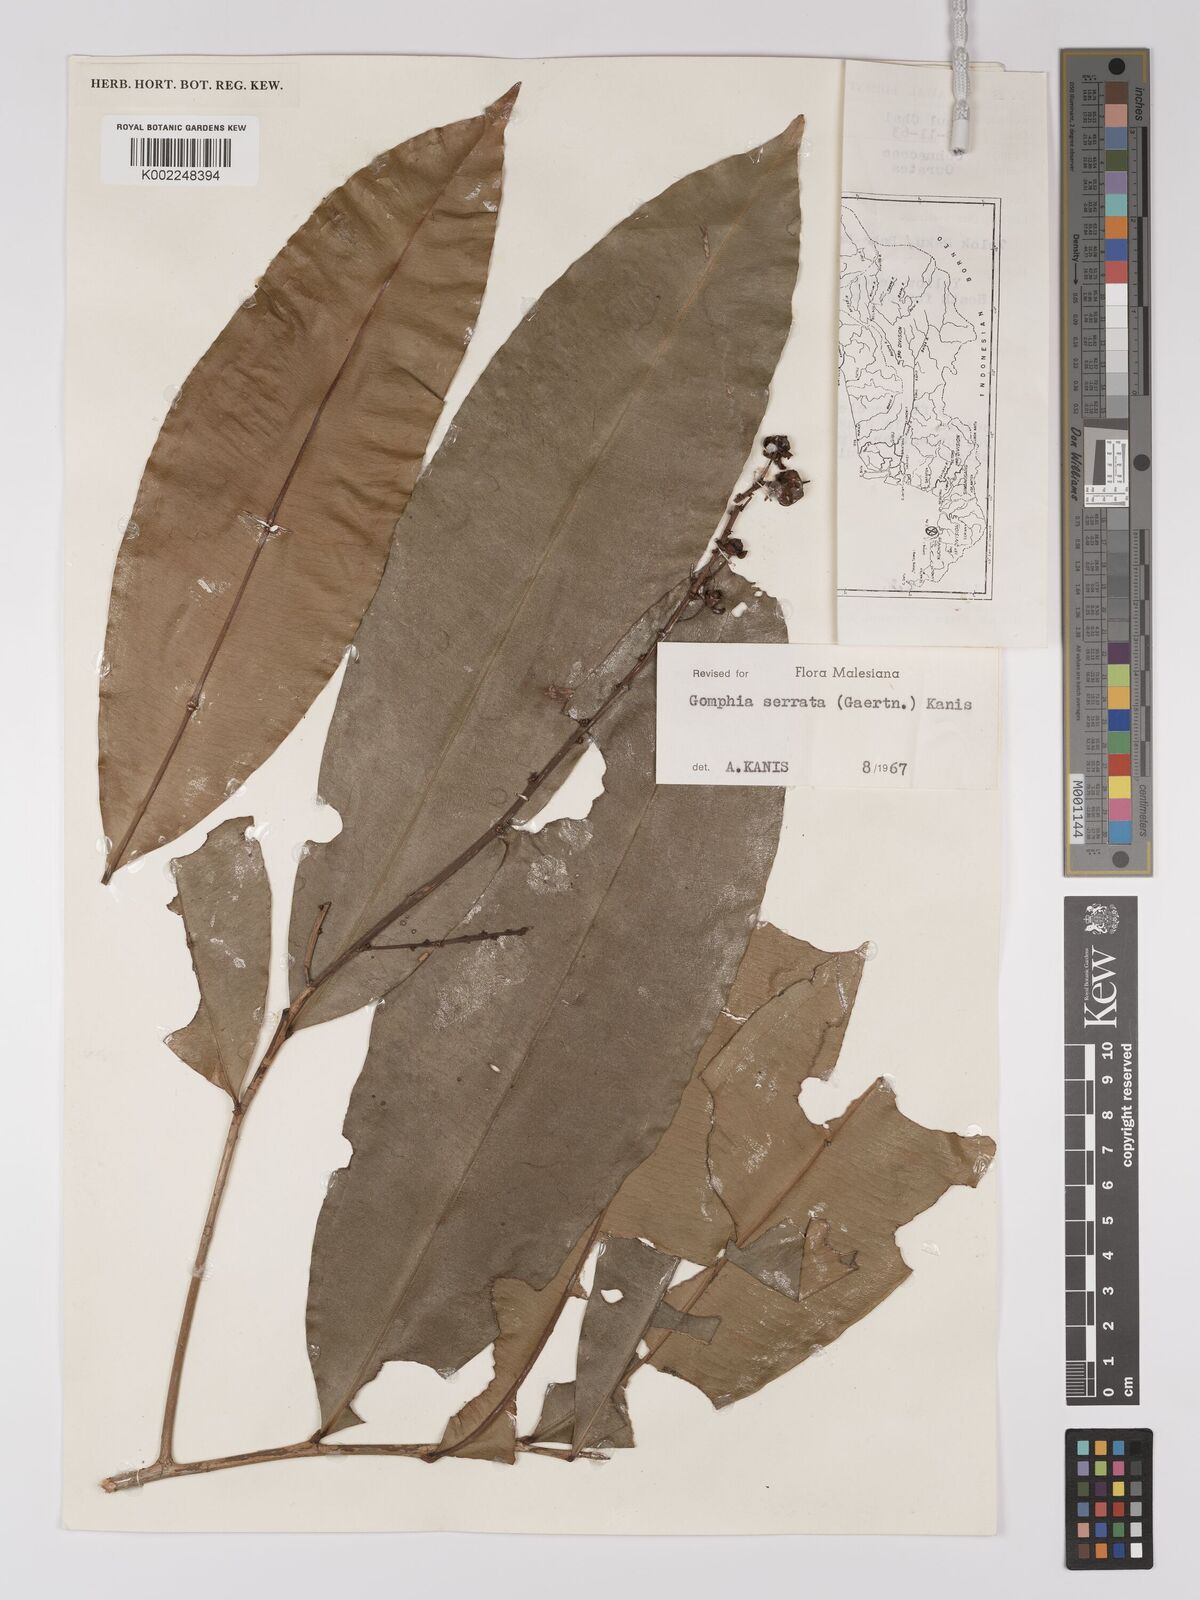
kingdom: Plantae
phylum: Tracheophyta
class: Magnoliopsida
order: Malpighiales
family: Ochnaceae
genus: Gomphia
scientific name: Gomphia serrata
